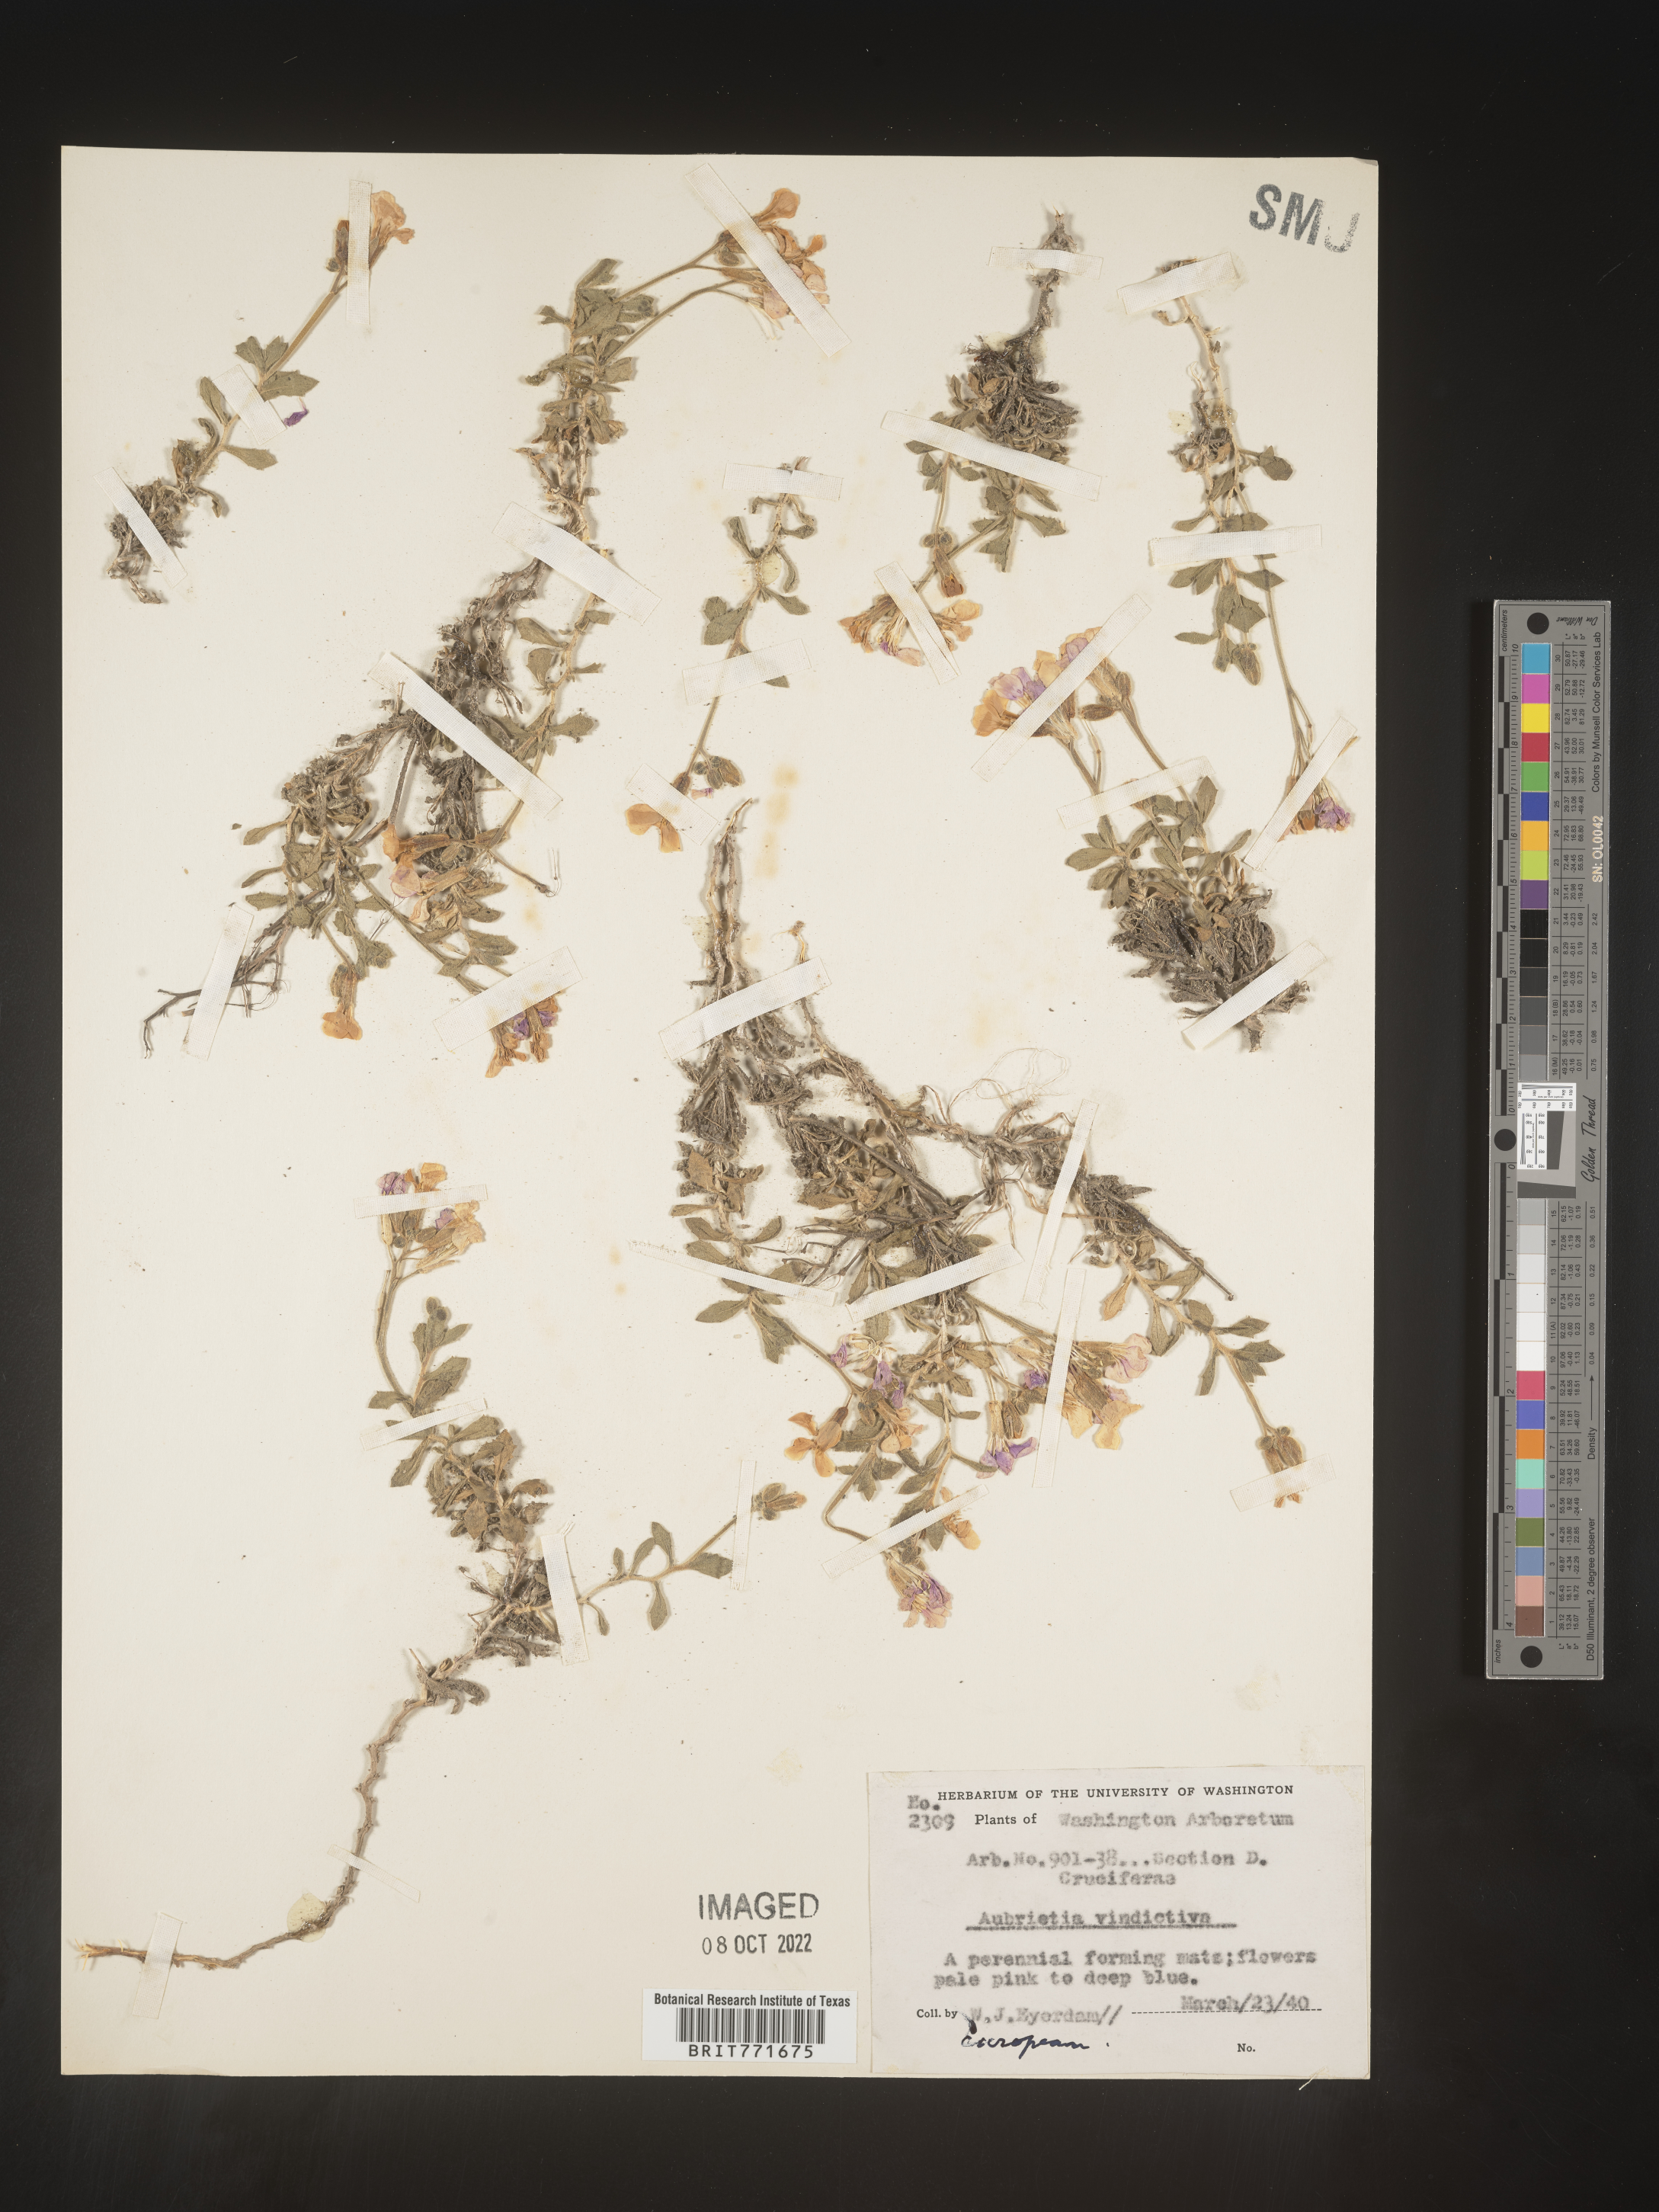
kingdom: Plantae
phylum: Tracheophyta
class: Magnoliopsida
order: Brassicales
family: Brassicaceae
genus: Aubrieta
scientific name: Aubrieta
